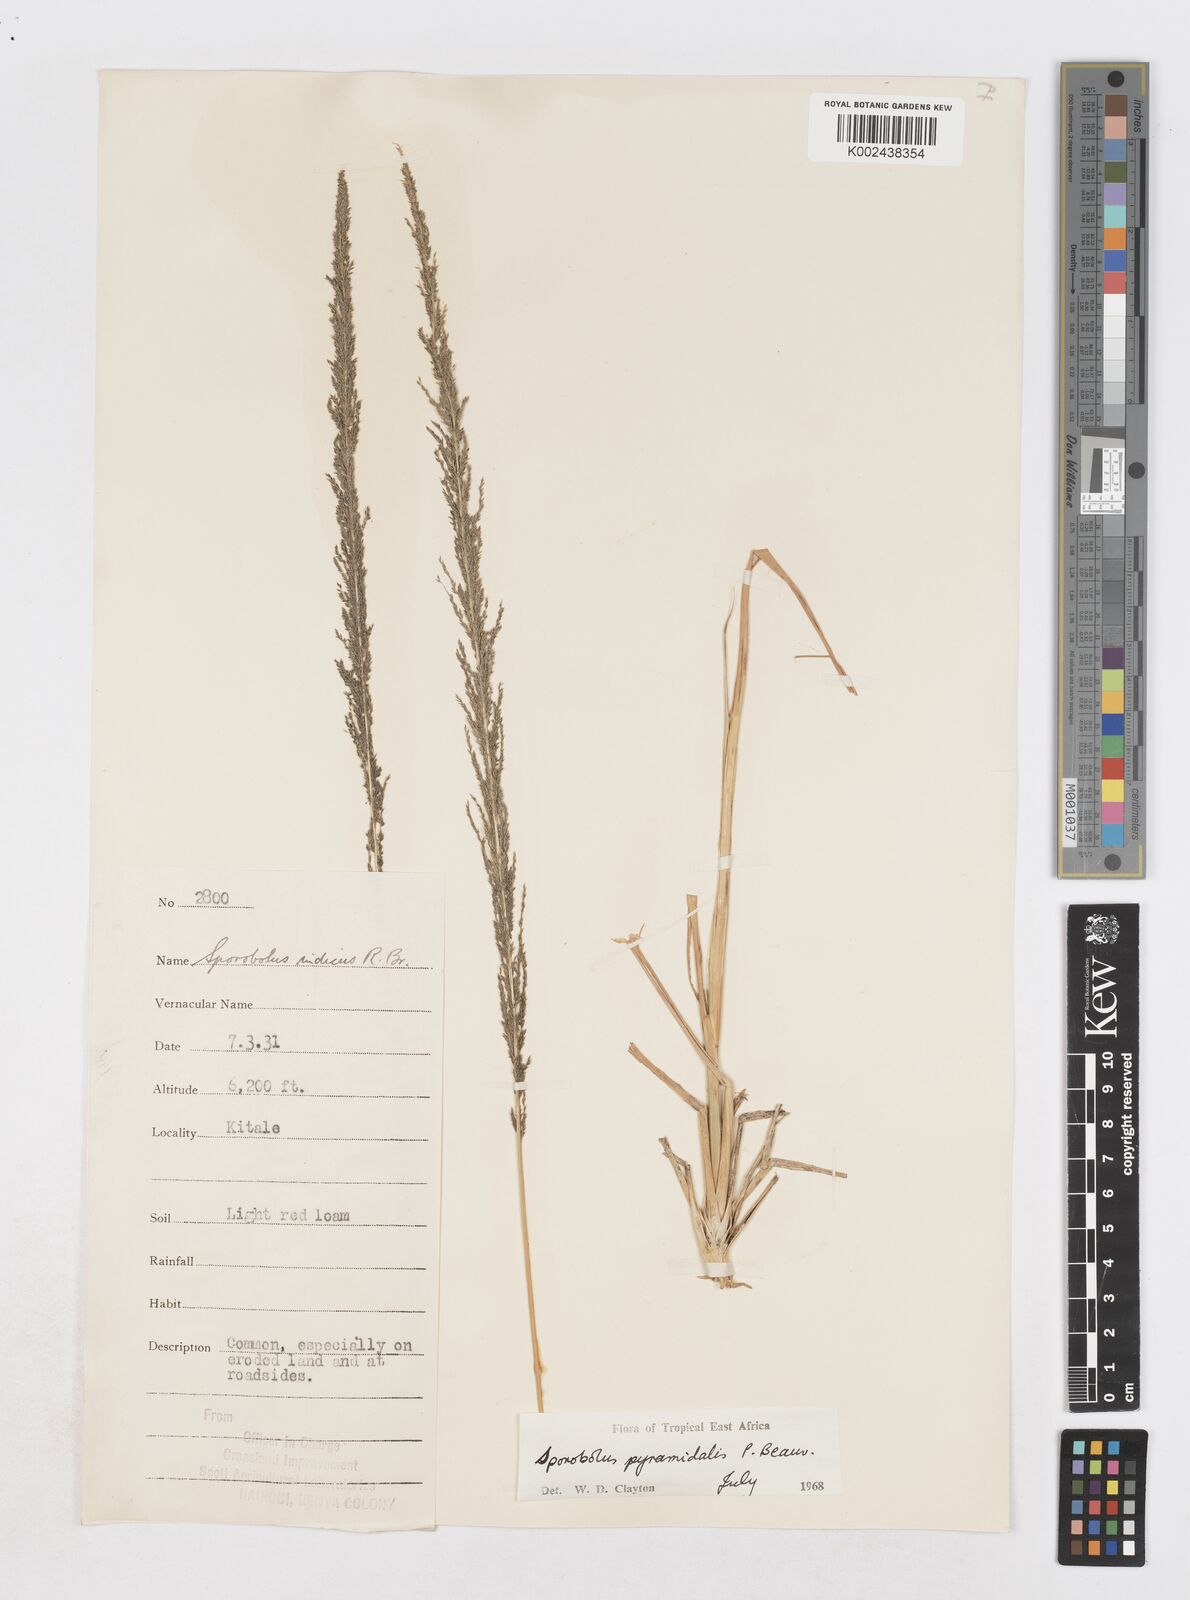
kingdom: Plantae
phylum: Tracheophyta
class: Liliopsida
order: Poales
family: Poaceae
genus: Sporobolus
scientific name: Sporobolus pyramidalis
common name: West indian dropseed
